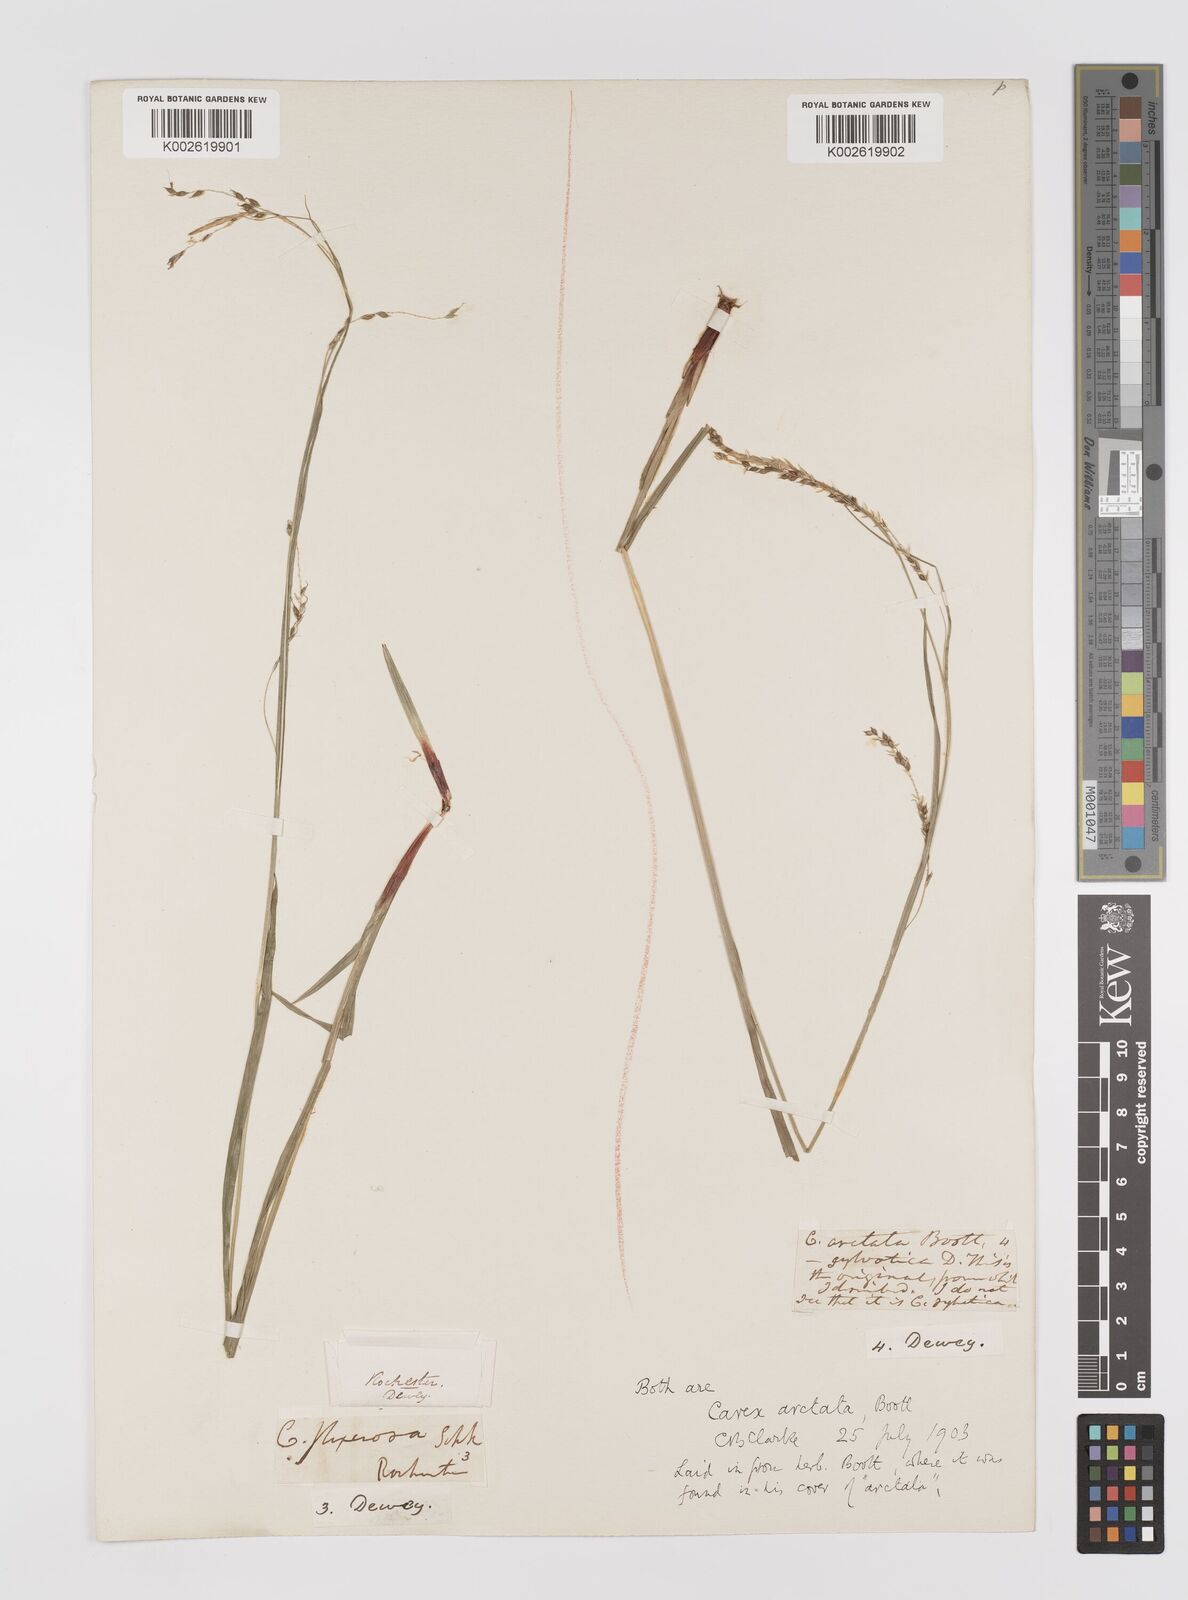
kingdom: Plantae
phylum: Tracheophyta
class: Liliopsida
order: Poales
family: Cyperaceae
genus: Carex
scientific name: Carex arctata
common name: Black sedge
